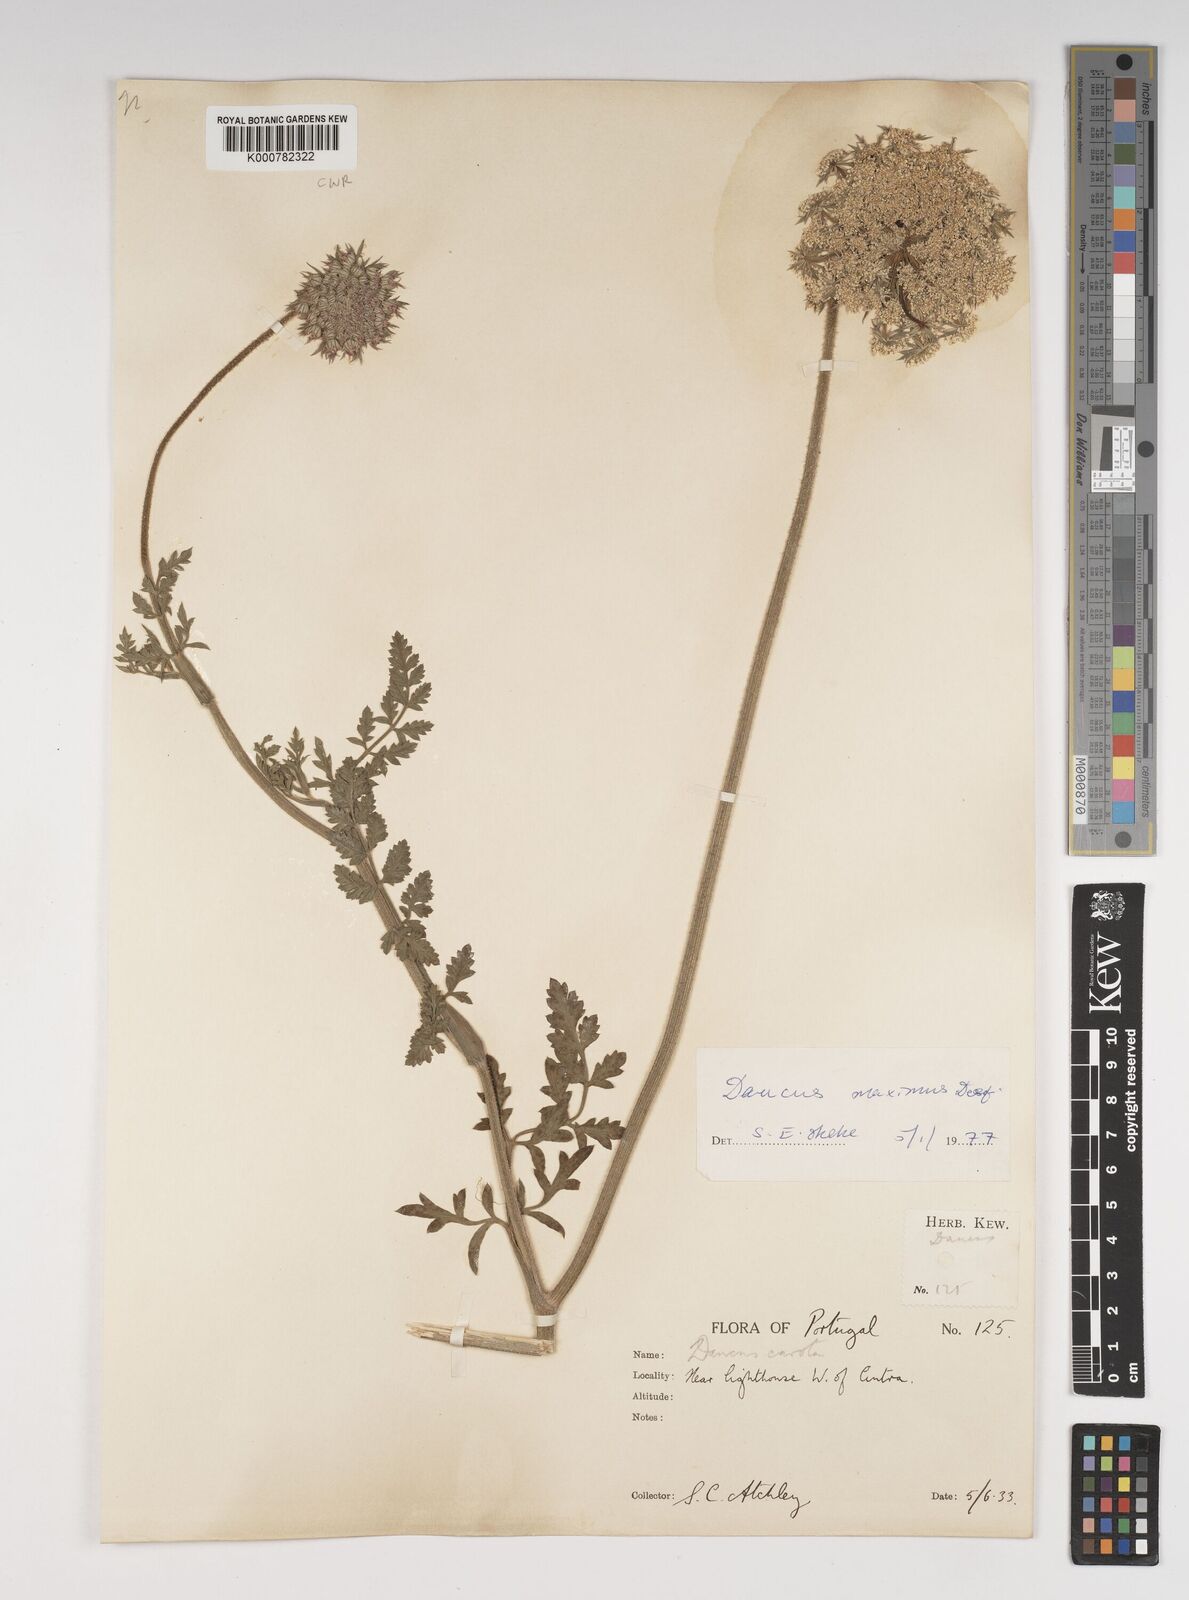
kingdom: Plantae
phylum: Tracheophyta
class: Magnoliopsida
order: Apiales
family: Apiaceae
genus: Daucus
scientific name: Daucus carota
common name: Wild carrot
